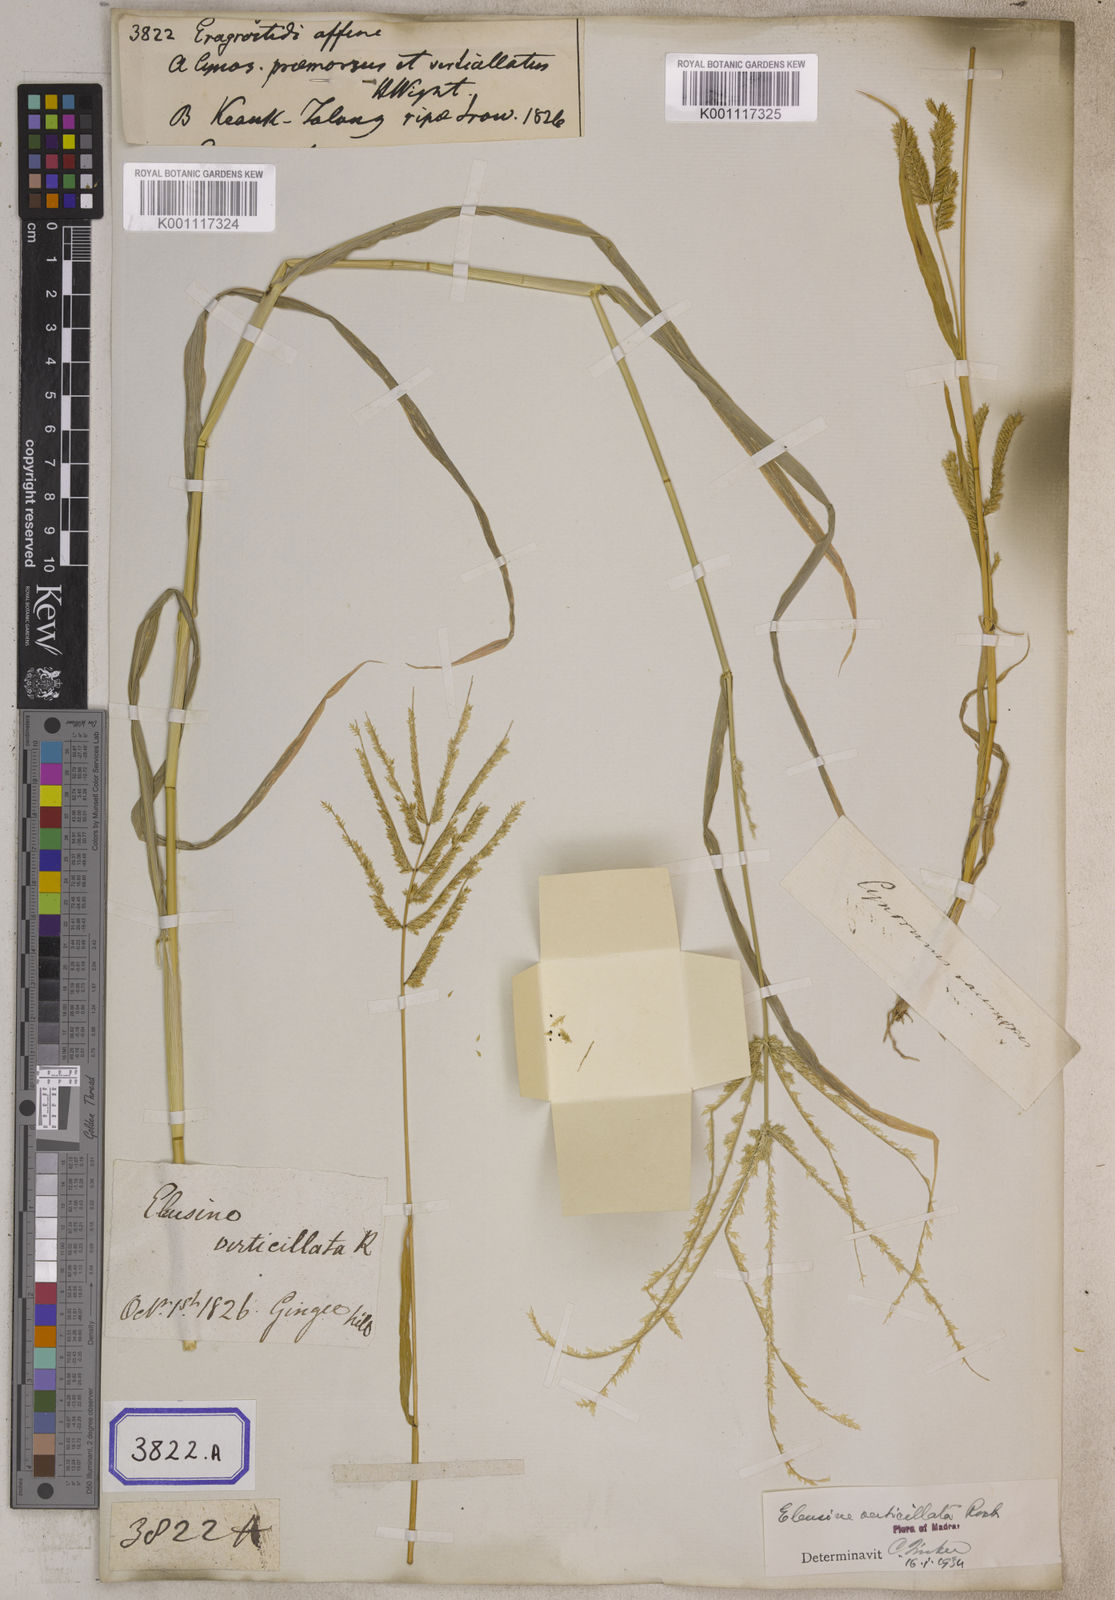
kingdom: Plantae
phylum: Tracheophyta
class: Liliopsida
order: Poales
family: Poaceae
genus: Eragrostis
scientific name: Eragrostis
